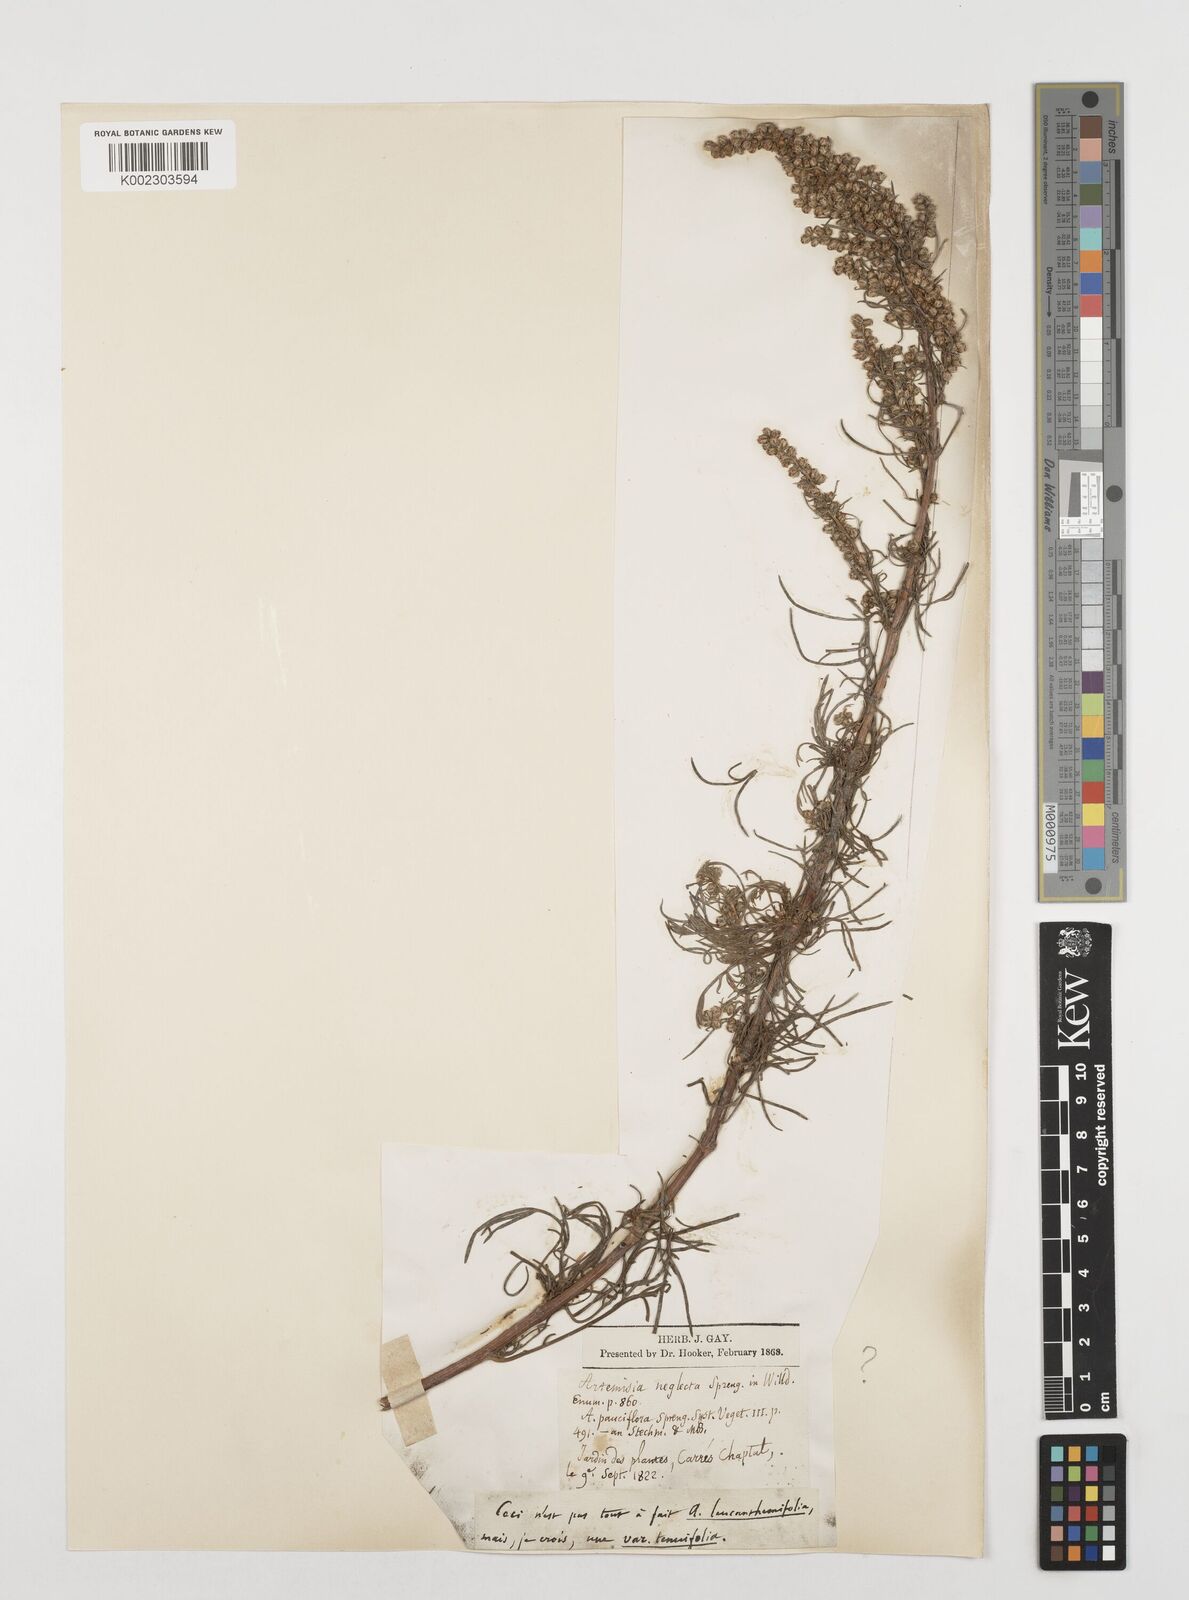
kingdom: Plantae
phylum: Tracheophyta
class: Magnoliopsida
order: Asterales
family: Asteraceae
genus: Artemisia
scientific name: Artemisia desertorum
